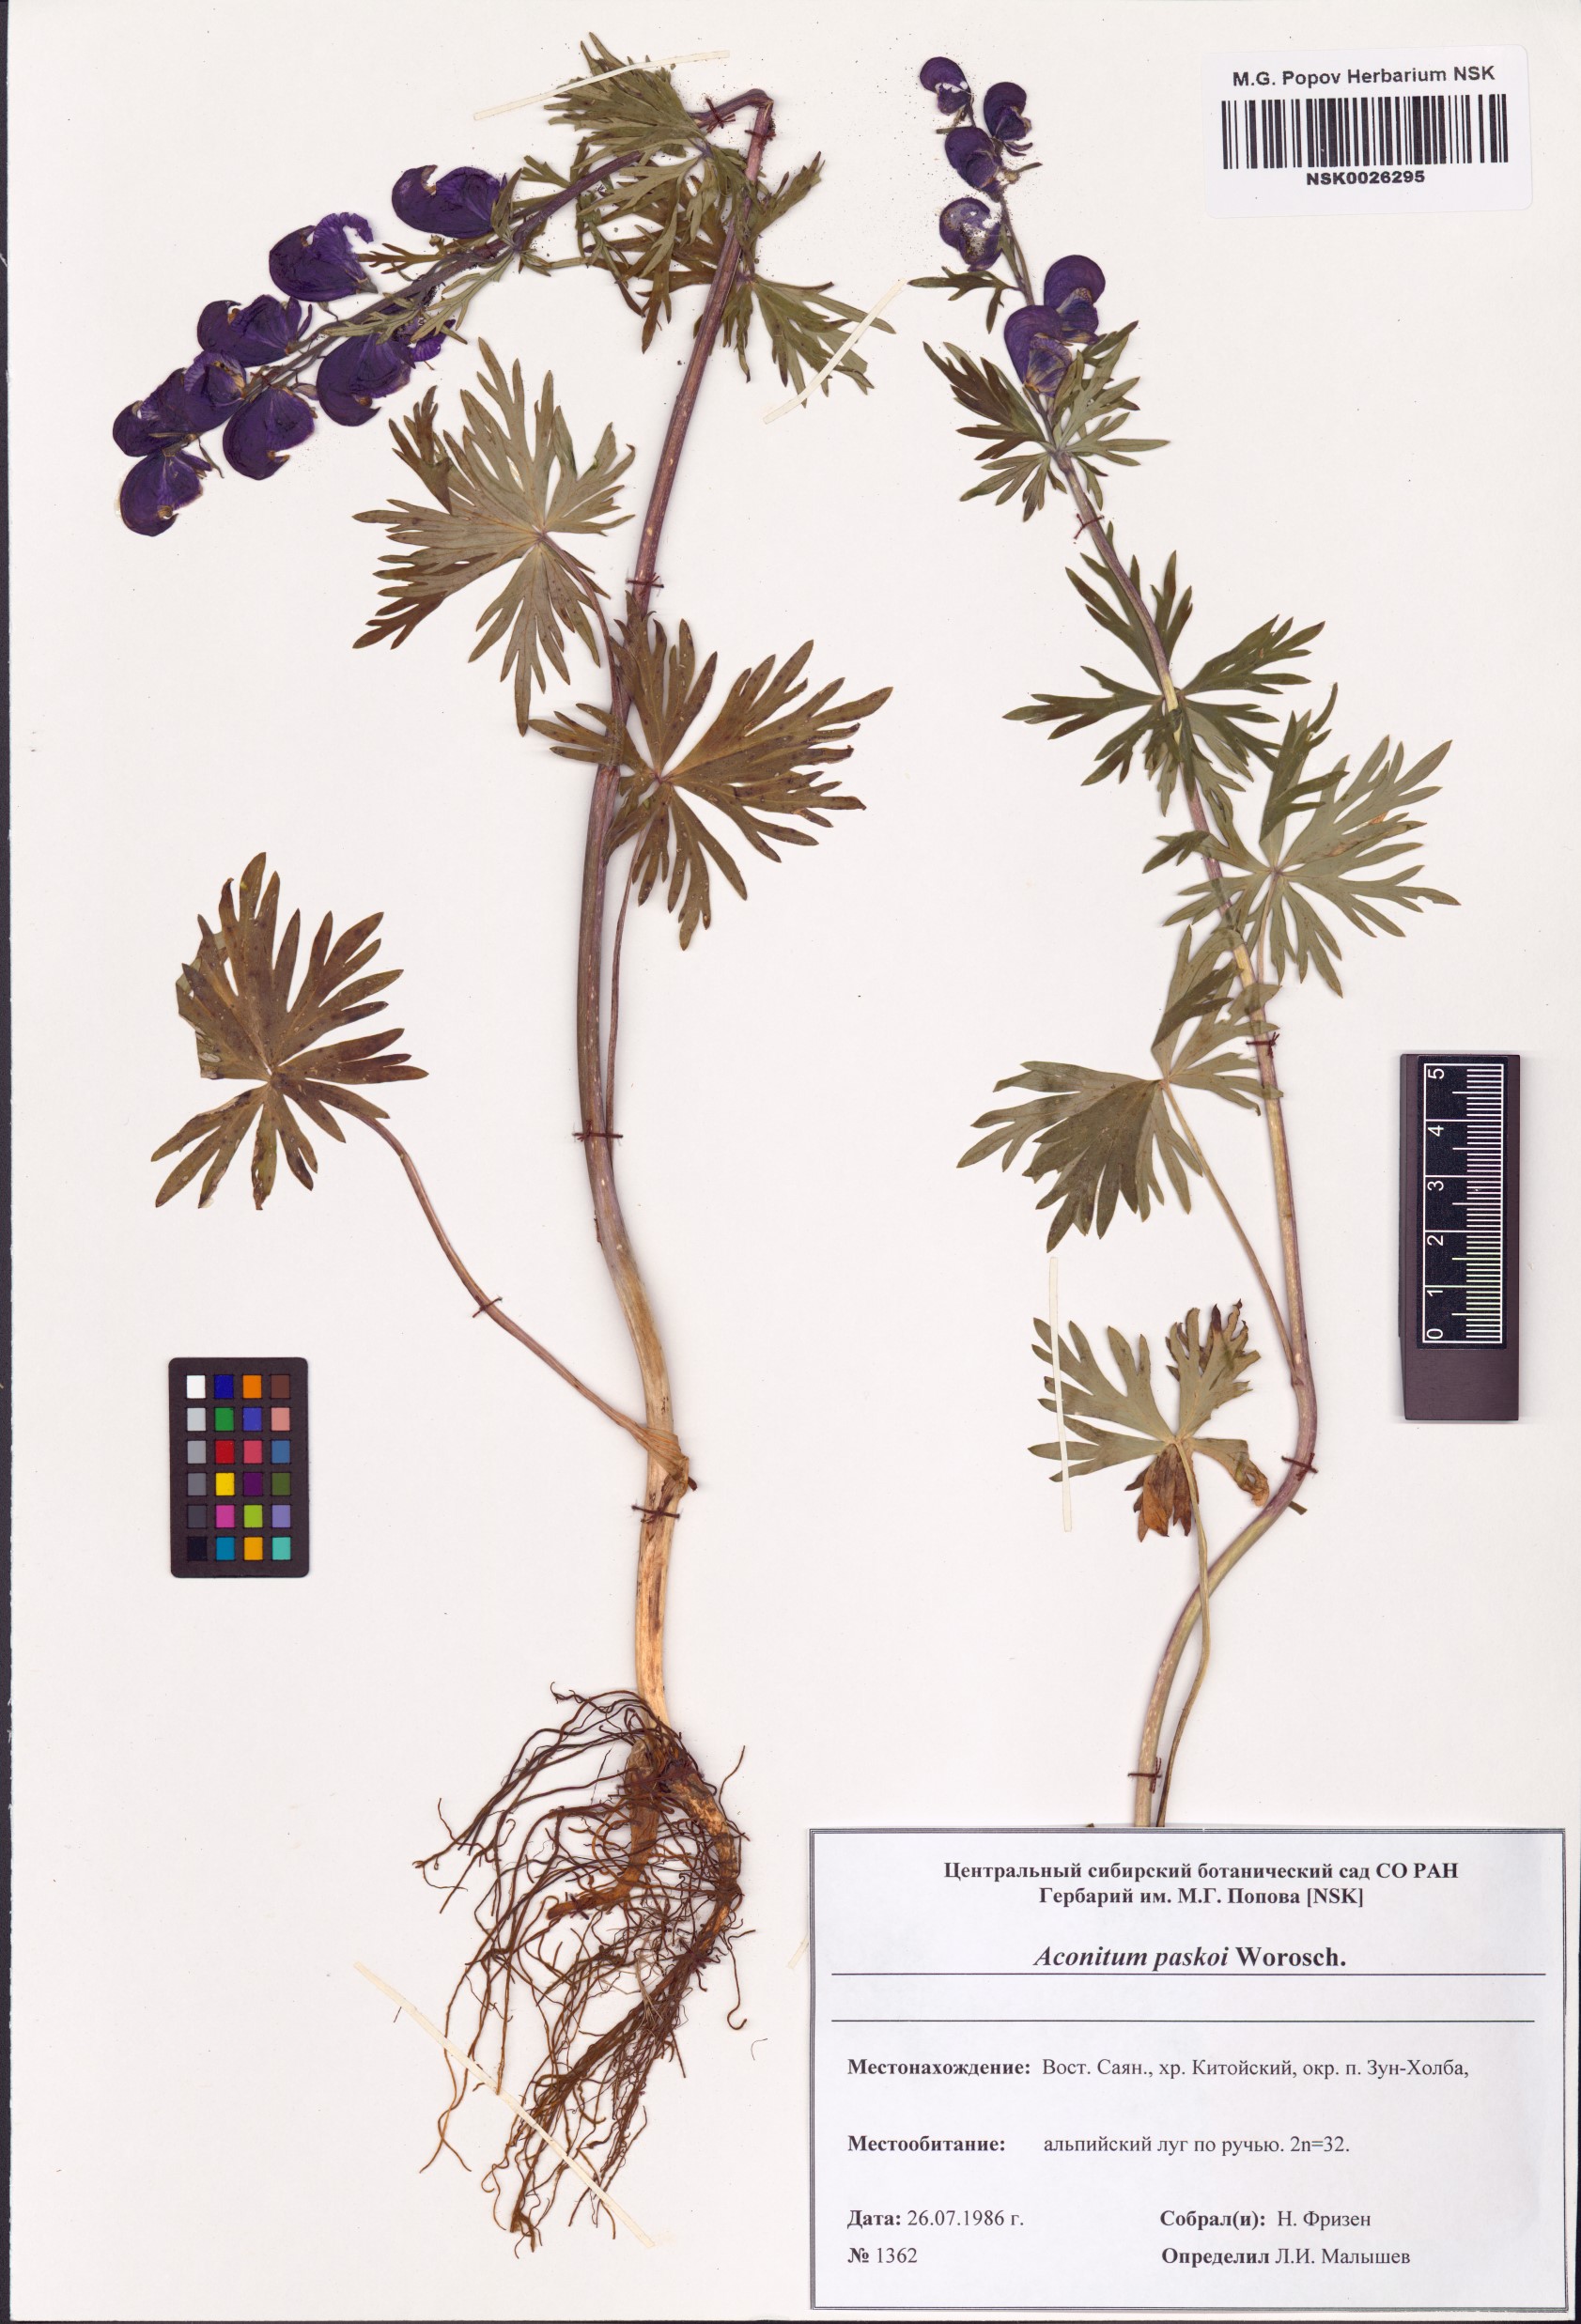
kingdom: Plantae
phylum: Tracheophyta
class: Magnoliopsida
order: Ranunculales
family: Ranunculaceae
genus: Aconitum
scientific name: Aconitum pascoi
